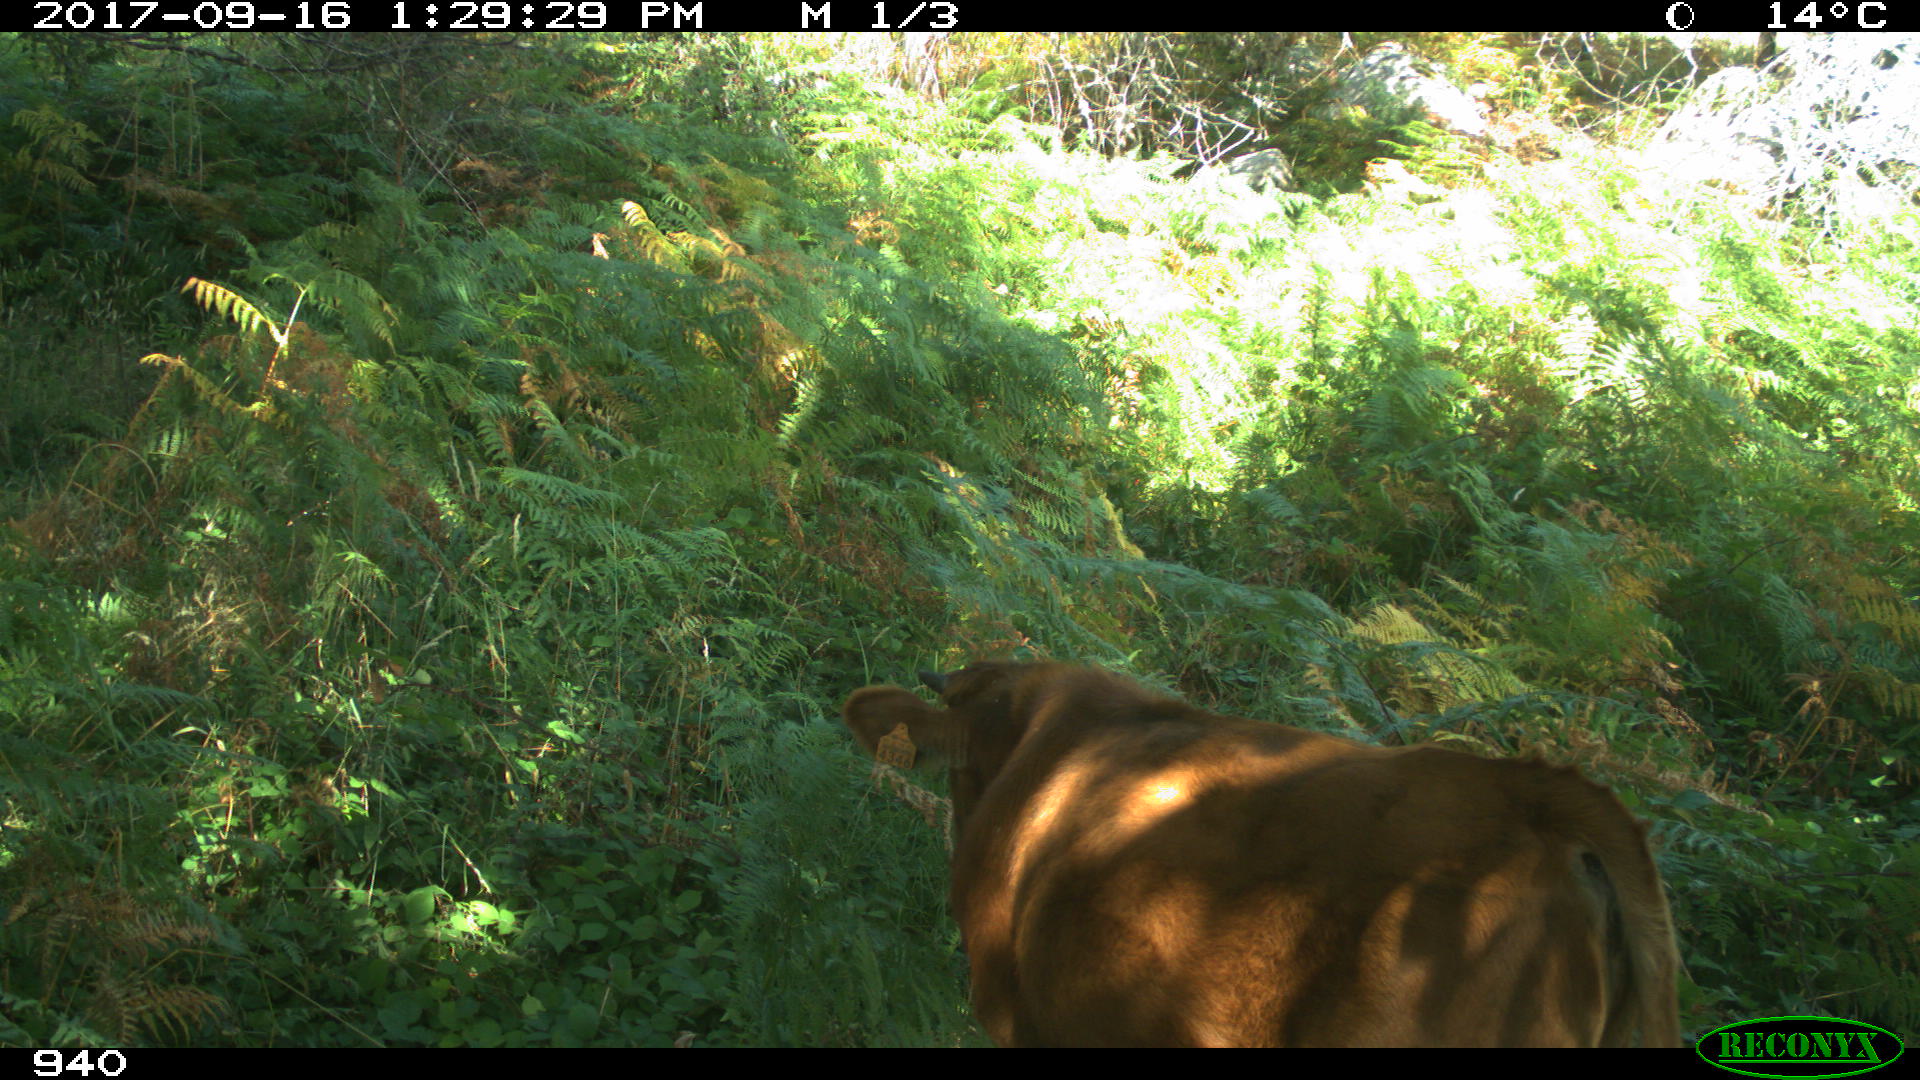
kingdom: Animalia
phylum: Chordata
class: Mammalia
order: Artiodactyla
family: Bovidae
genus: Bos
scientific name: Bos taurus
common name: Domesticated cattle
